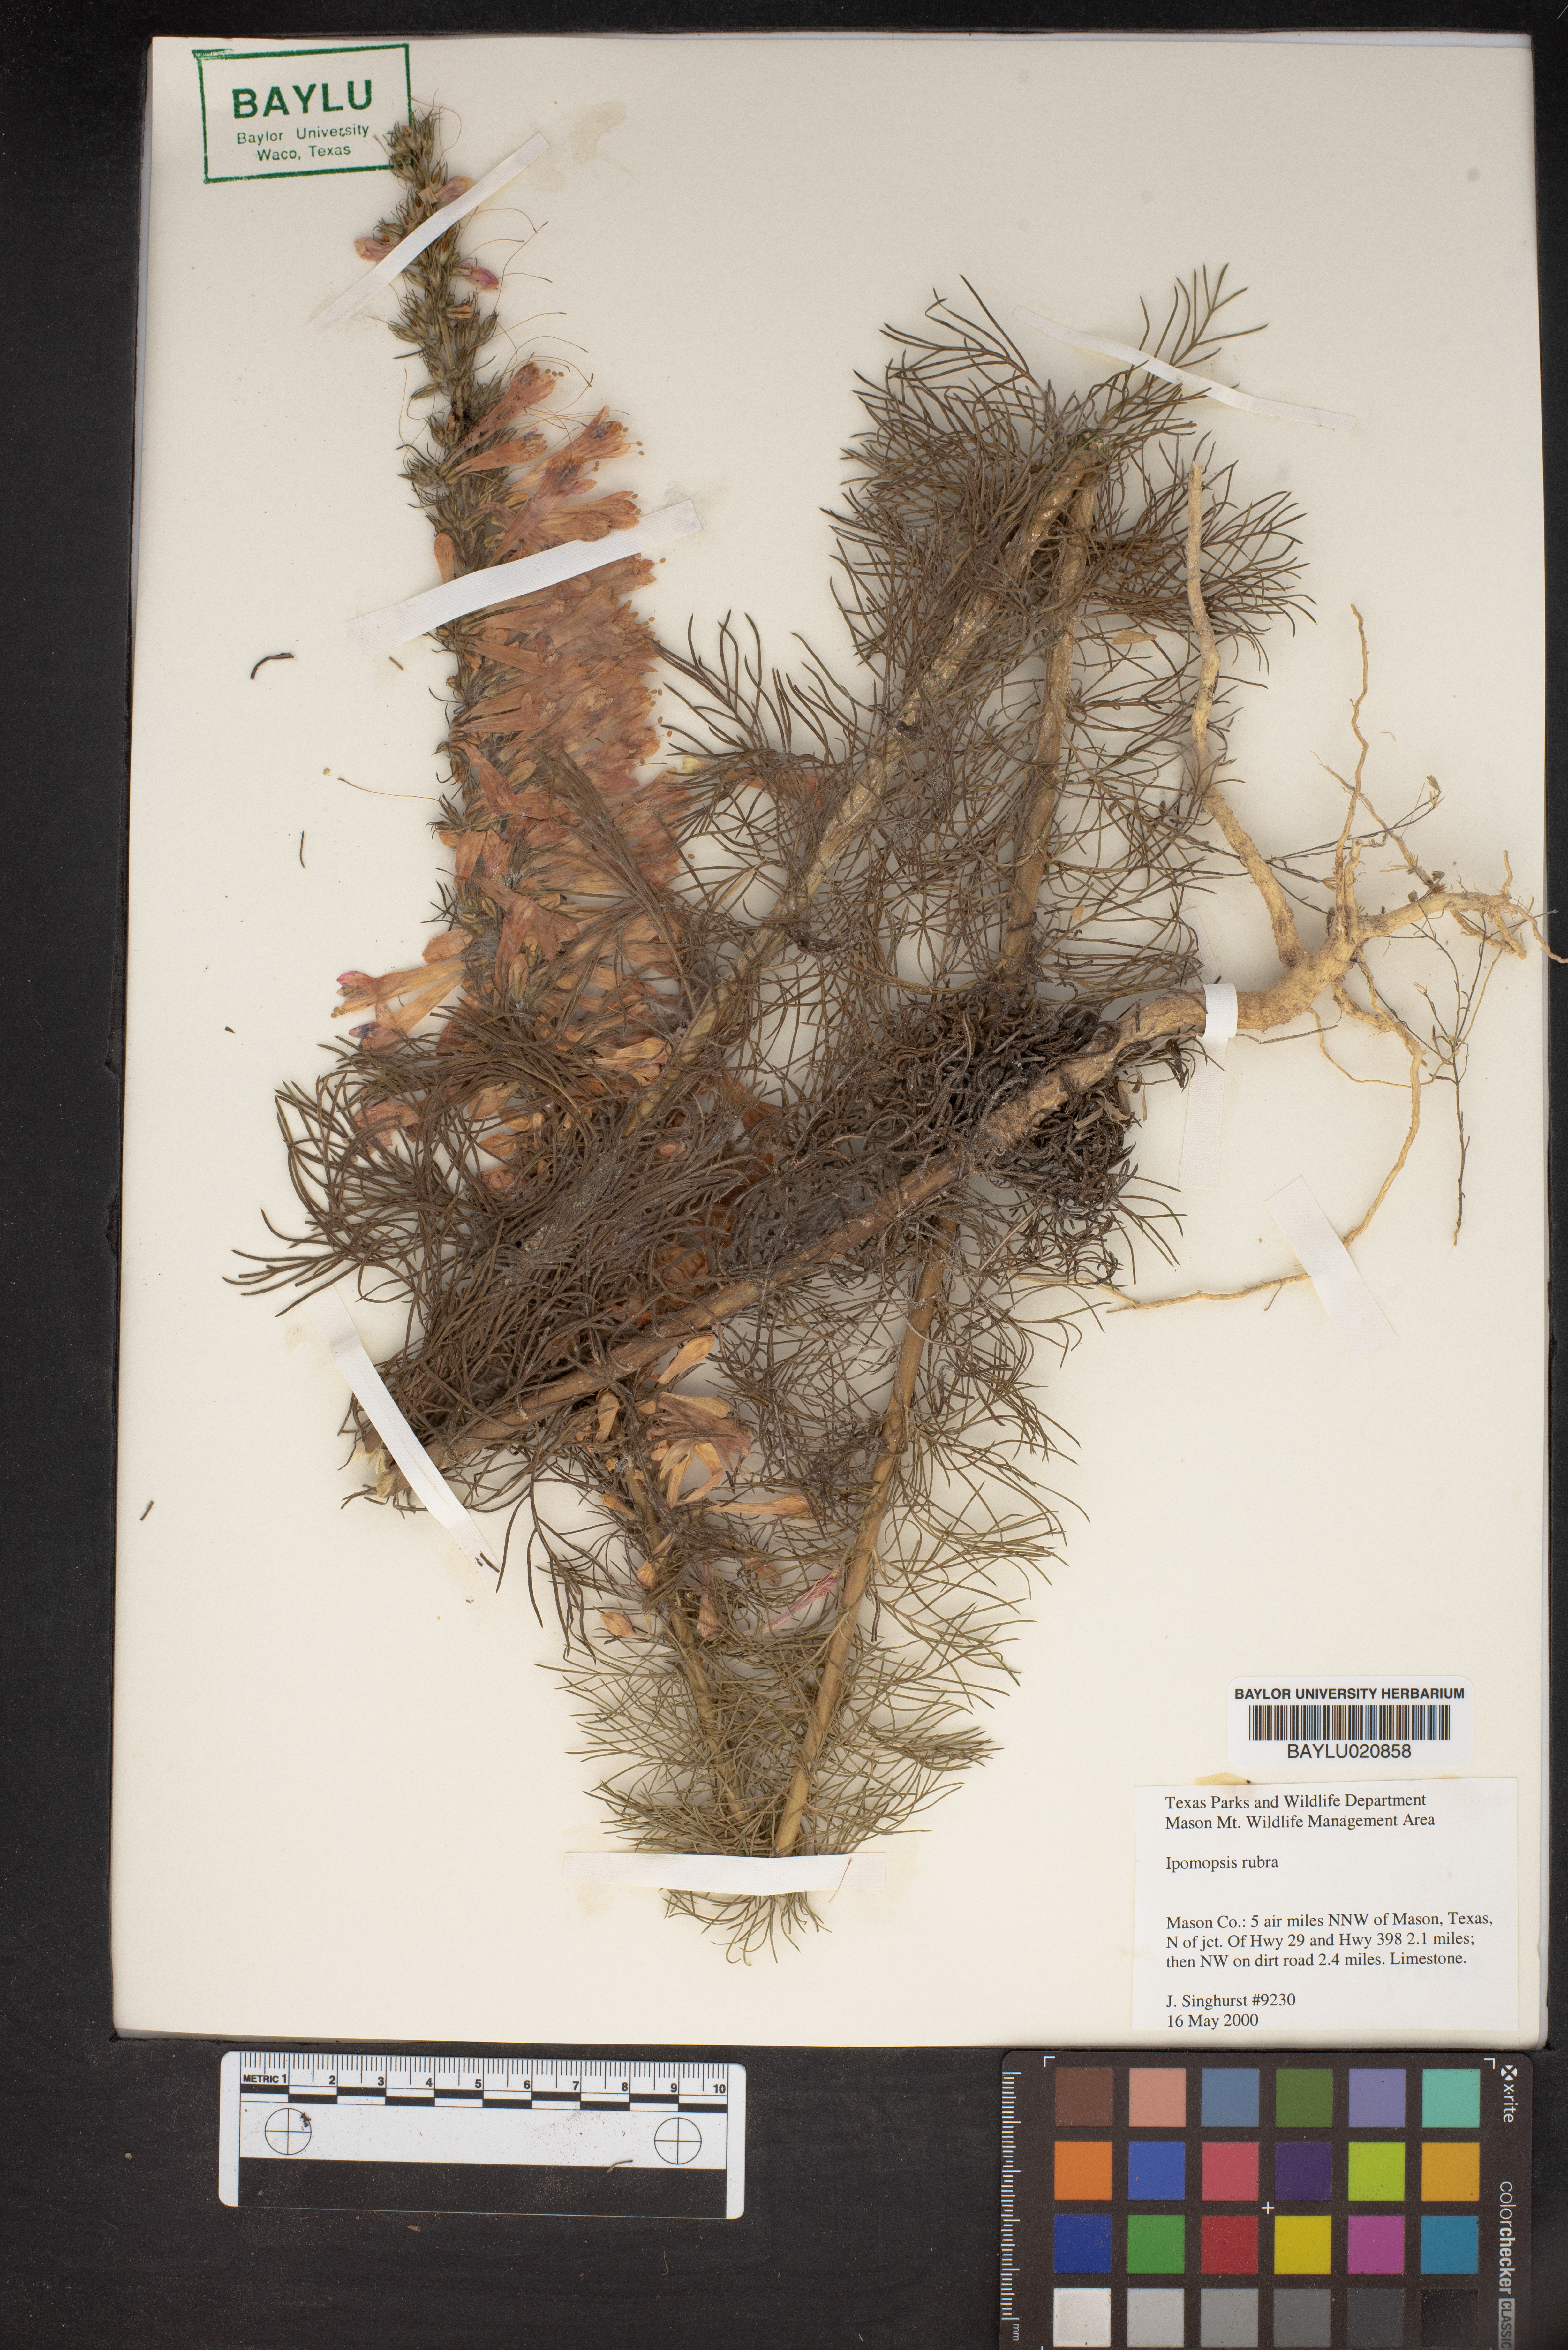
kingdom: Plantae
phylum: Tracheophyta
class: Magnoliopsida
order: Ericales
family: Polemoniaceae
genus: Ipomopsis
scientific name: Ipomopsis rubra
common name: Skyrocket
